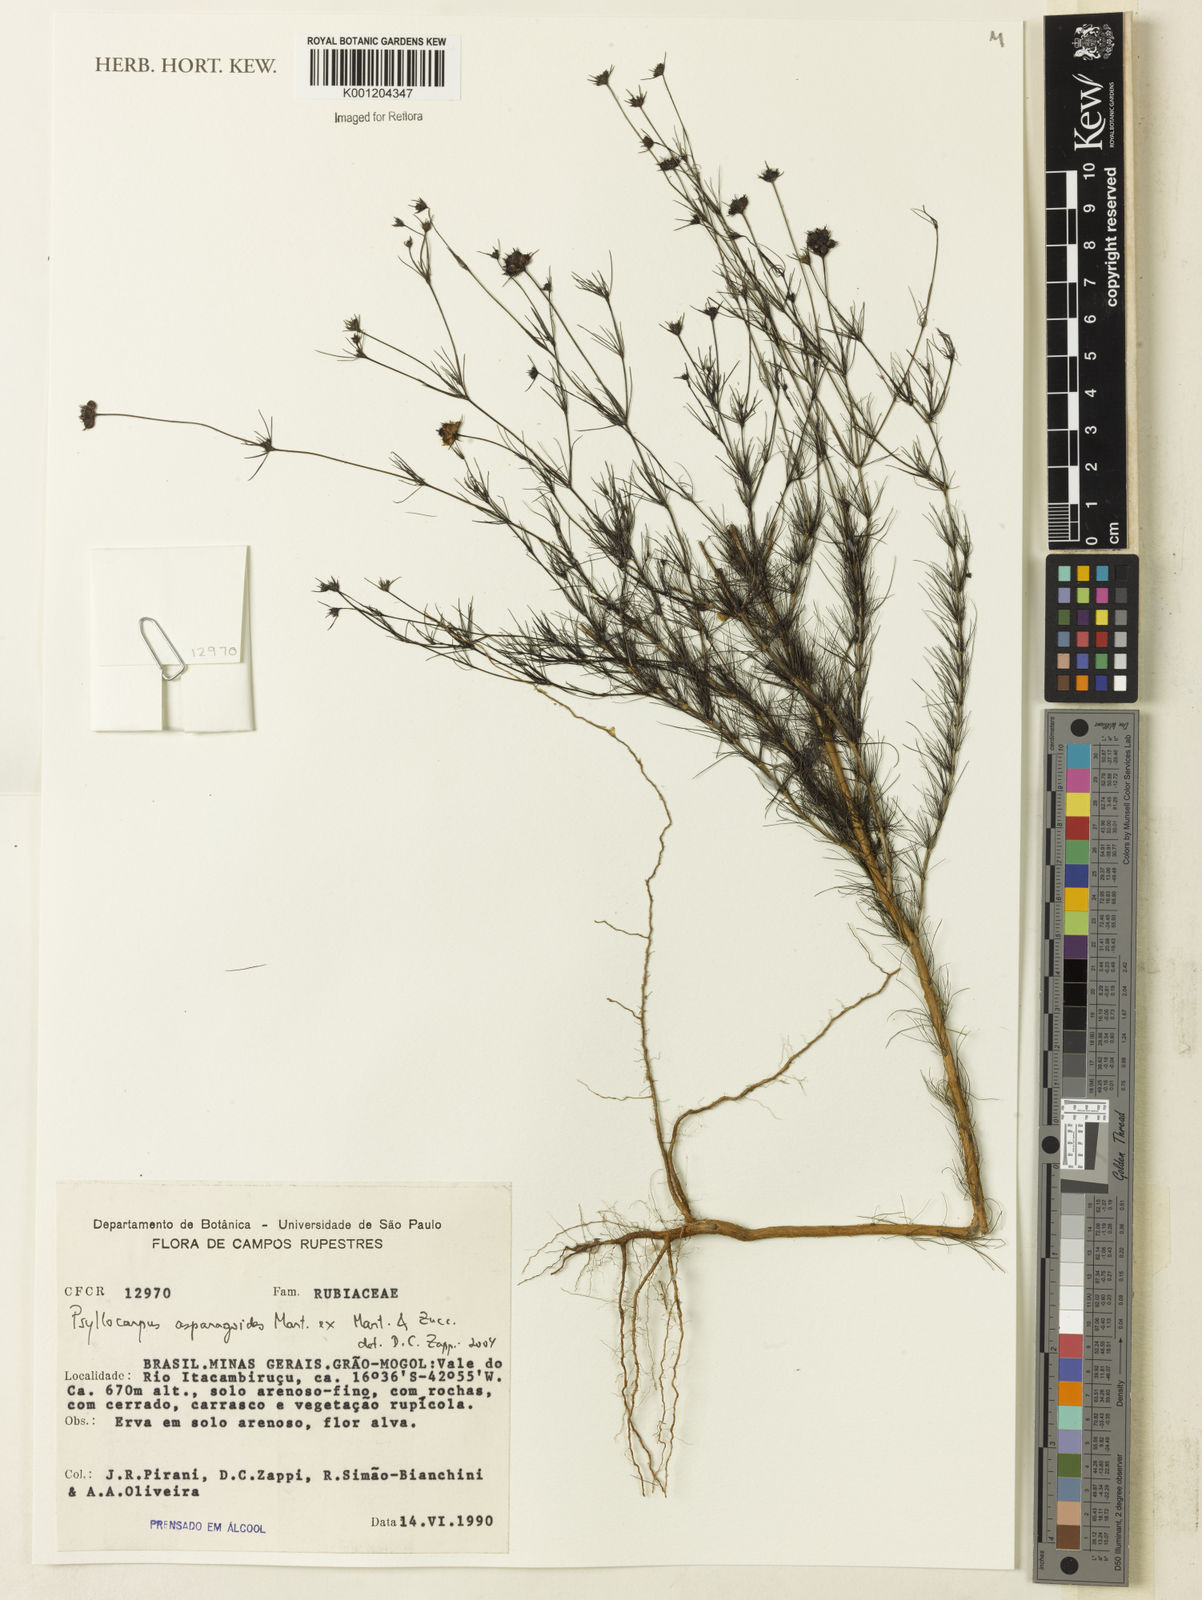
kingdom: Plantae
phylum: Tracheophyta
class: Magnoliopsida
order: Gentianales
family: Rubiaceae
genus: Psyllocarpus
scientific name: Psyllocarpus asparagoides
